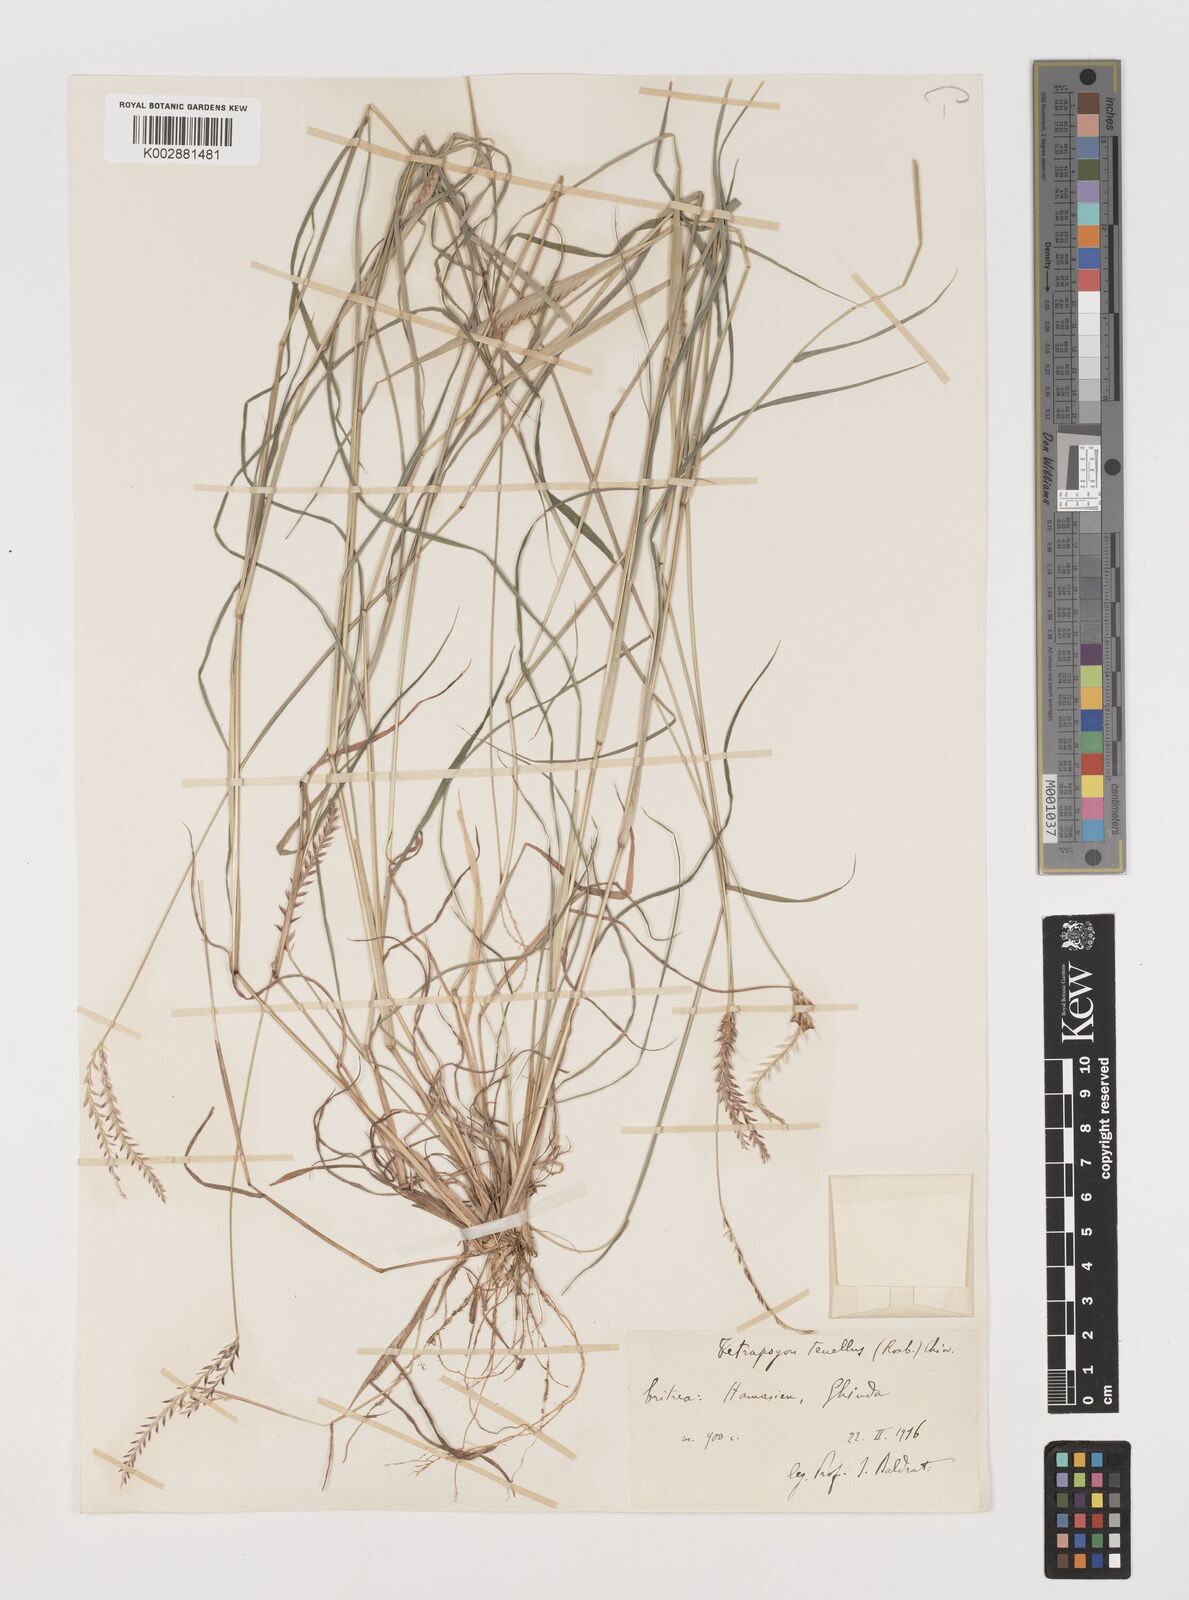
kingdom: Plantae
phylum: Tracheophyta
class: Liliopsida
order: Poales
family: Poaceae
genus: Tetrapogon
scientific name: Tetrapogon tenellus
